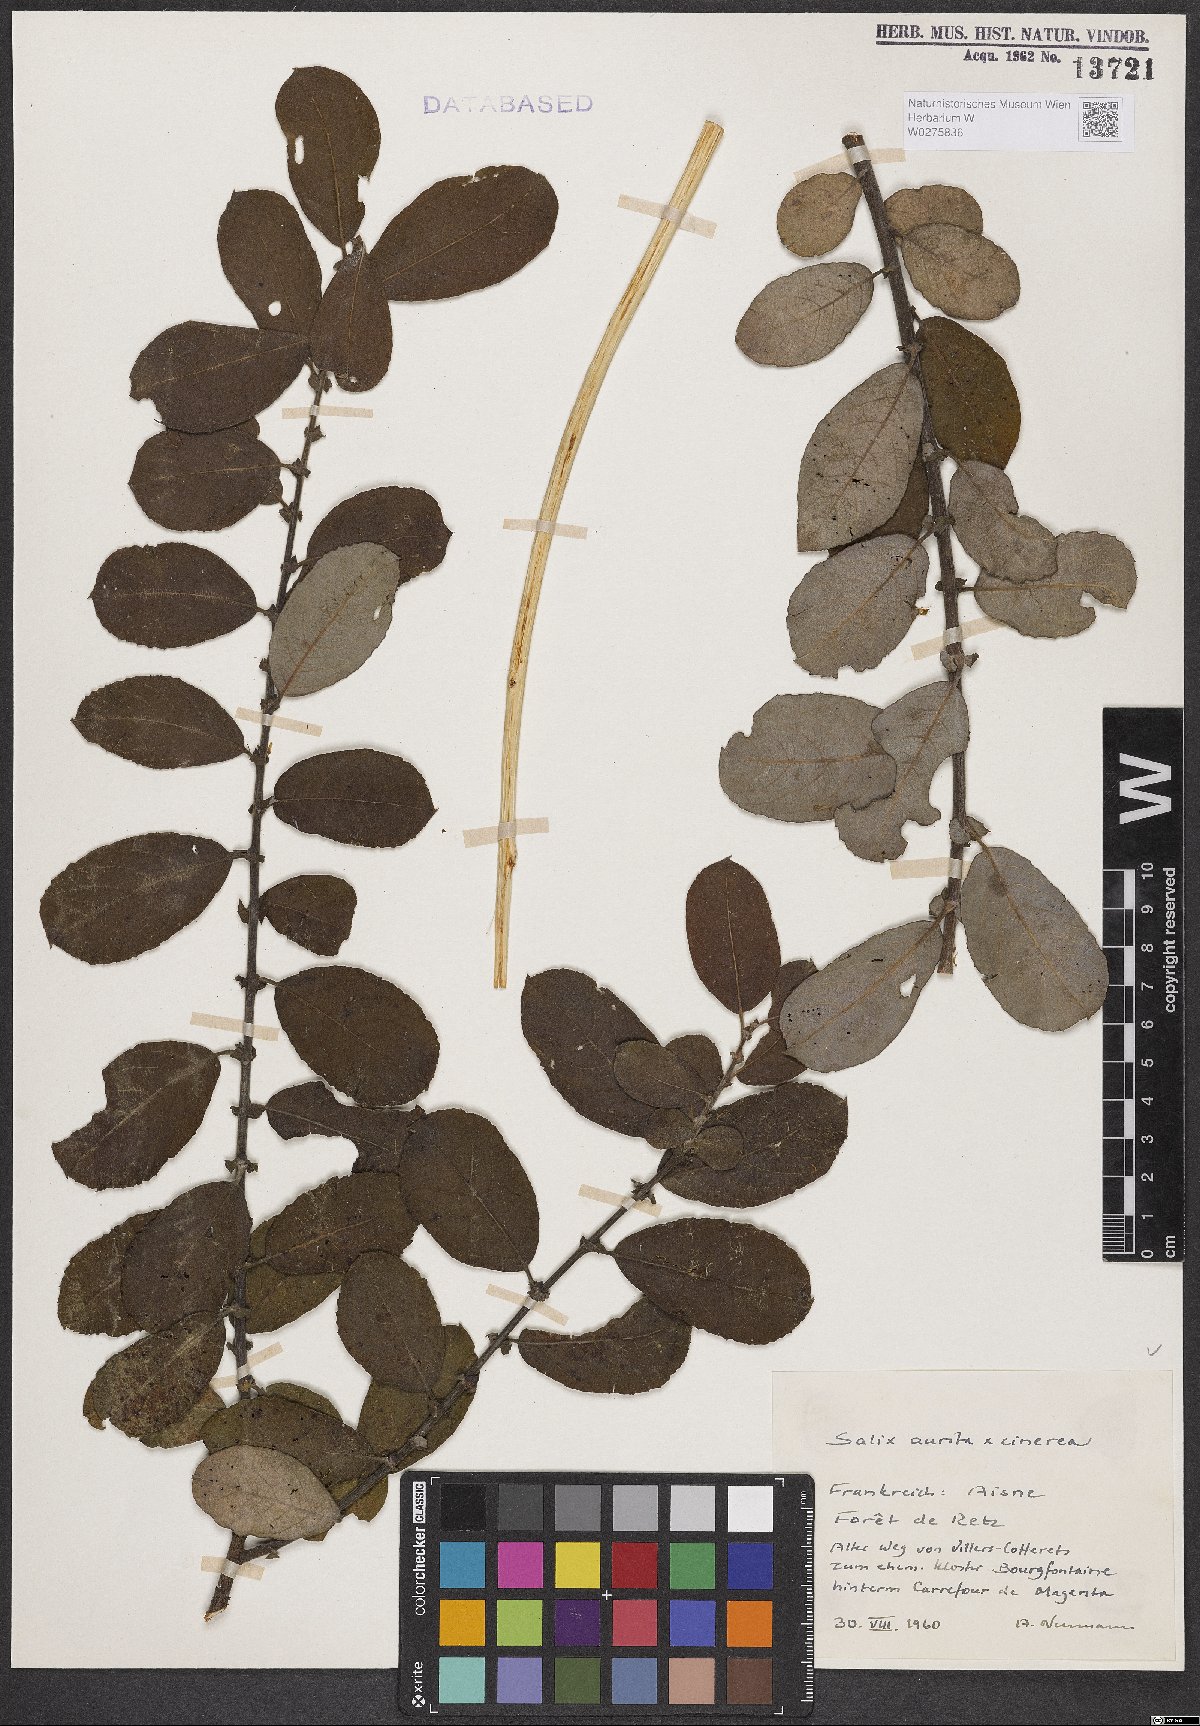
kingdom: Plantae
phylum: Tracheophyta
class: Magnoliopsida
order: Malpighiales
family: Salicaceae
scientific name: Salicaceae
